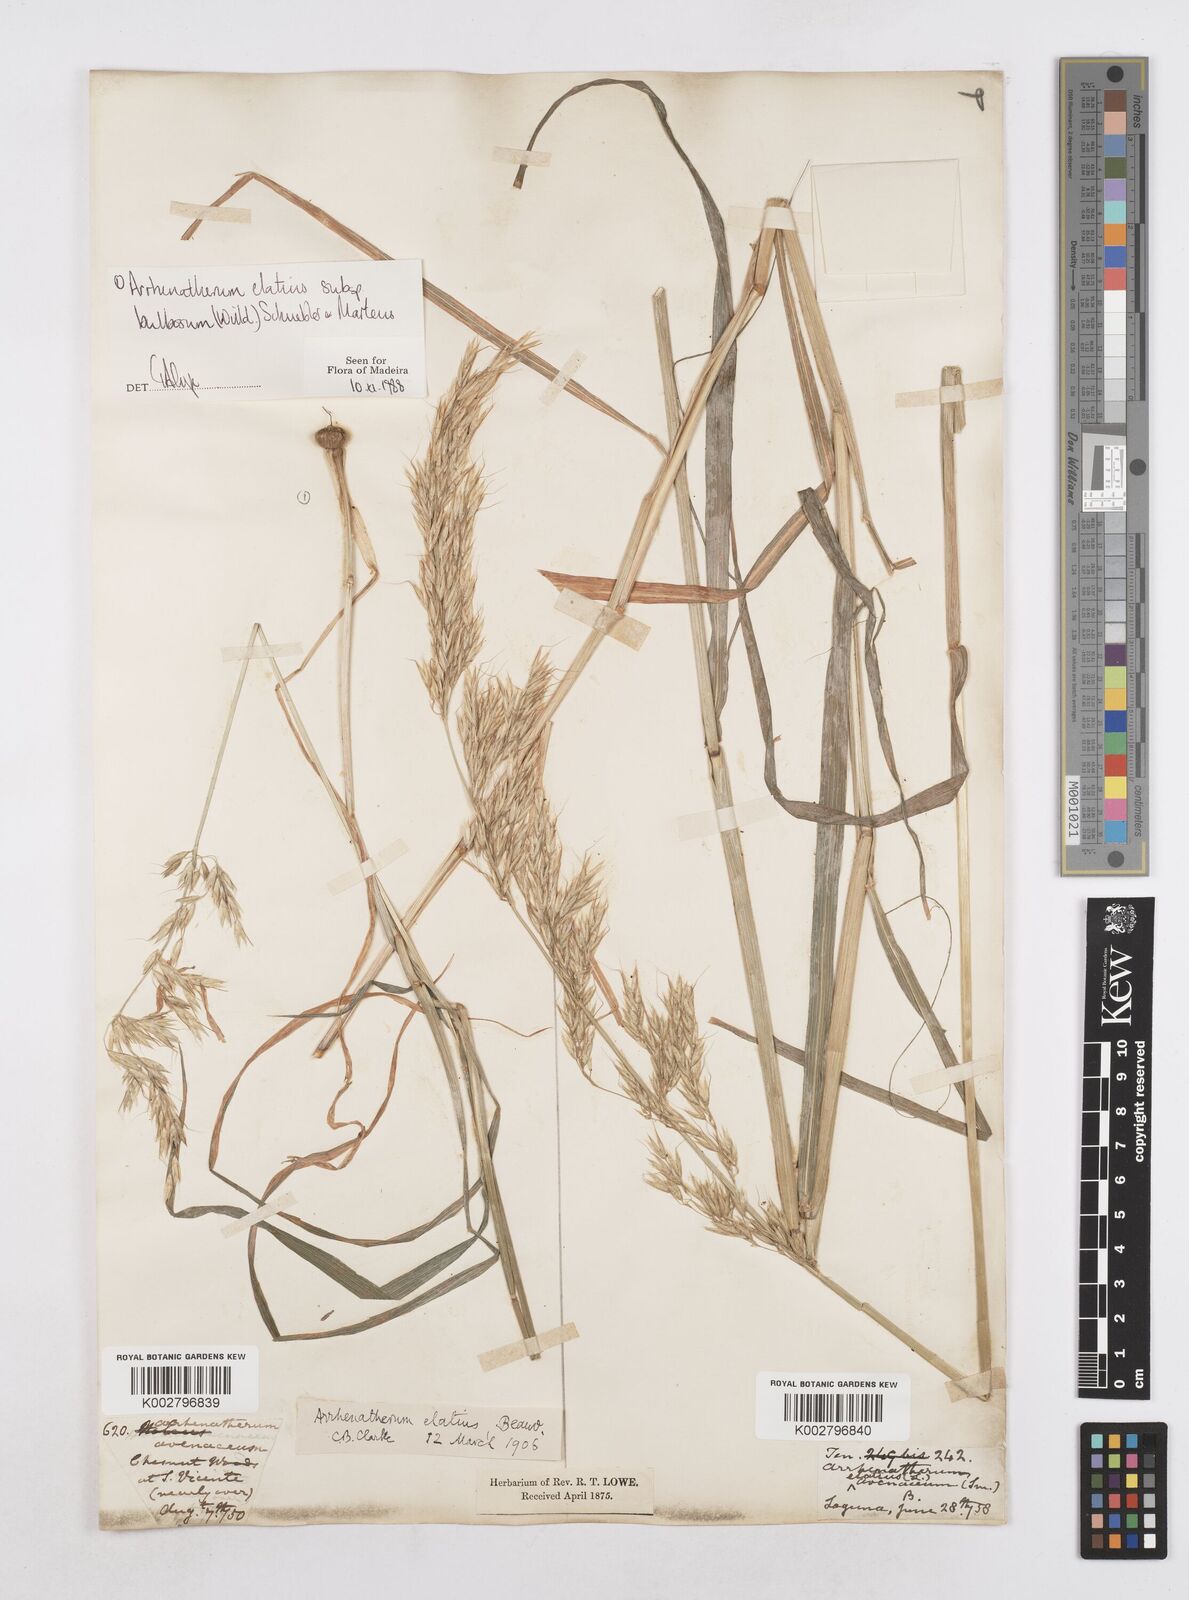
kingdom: Plantae
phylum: Tracheophyta
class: Liliopsida
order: Poales
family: Poaceae
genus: Arrhenatherum
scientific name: Arrhenatherum elatius
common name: Tall oatgrass
